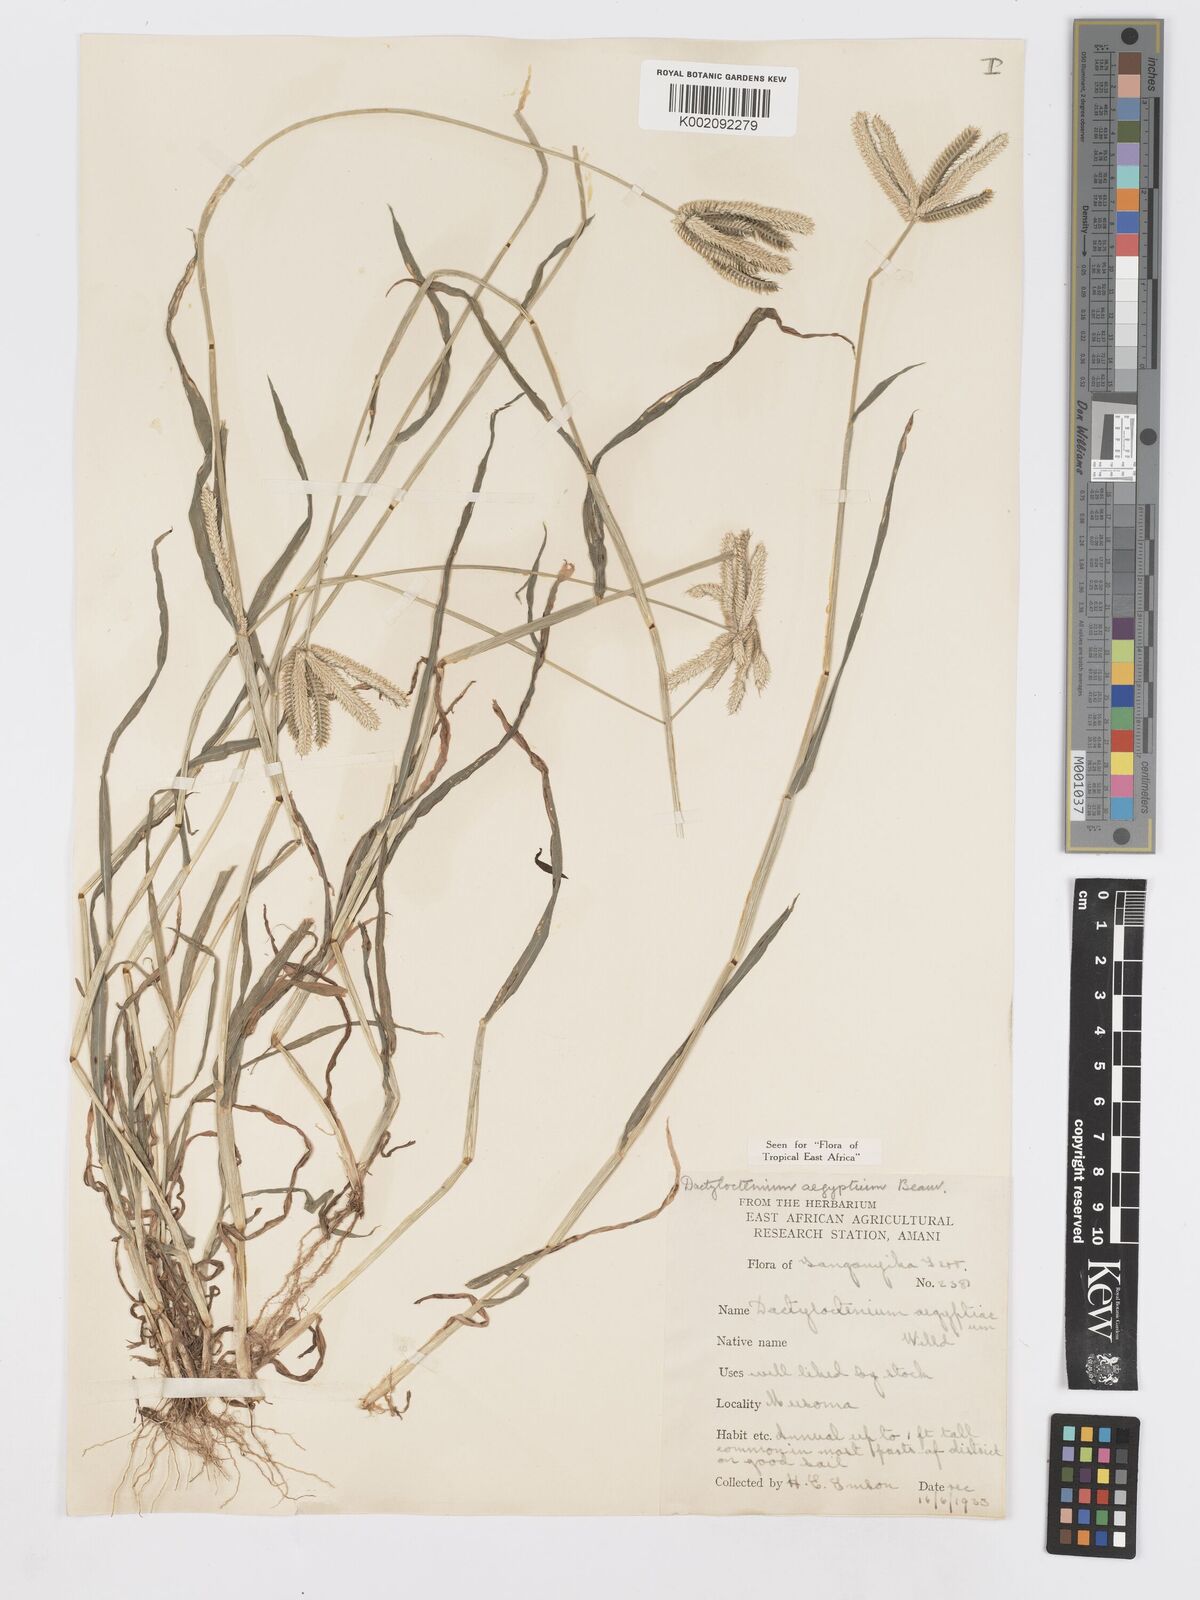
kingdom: Plantae
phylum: Tracheophyta
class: Liliopsida
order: Poales
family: Poaceae
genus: Dactyloctenium
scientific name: Dactyloctenium aegyptium
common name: Egyptian grass
